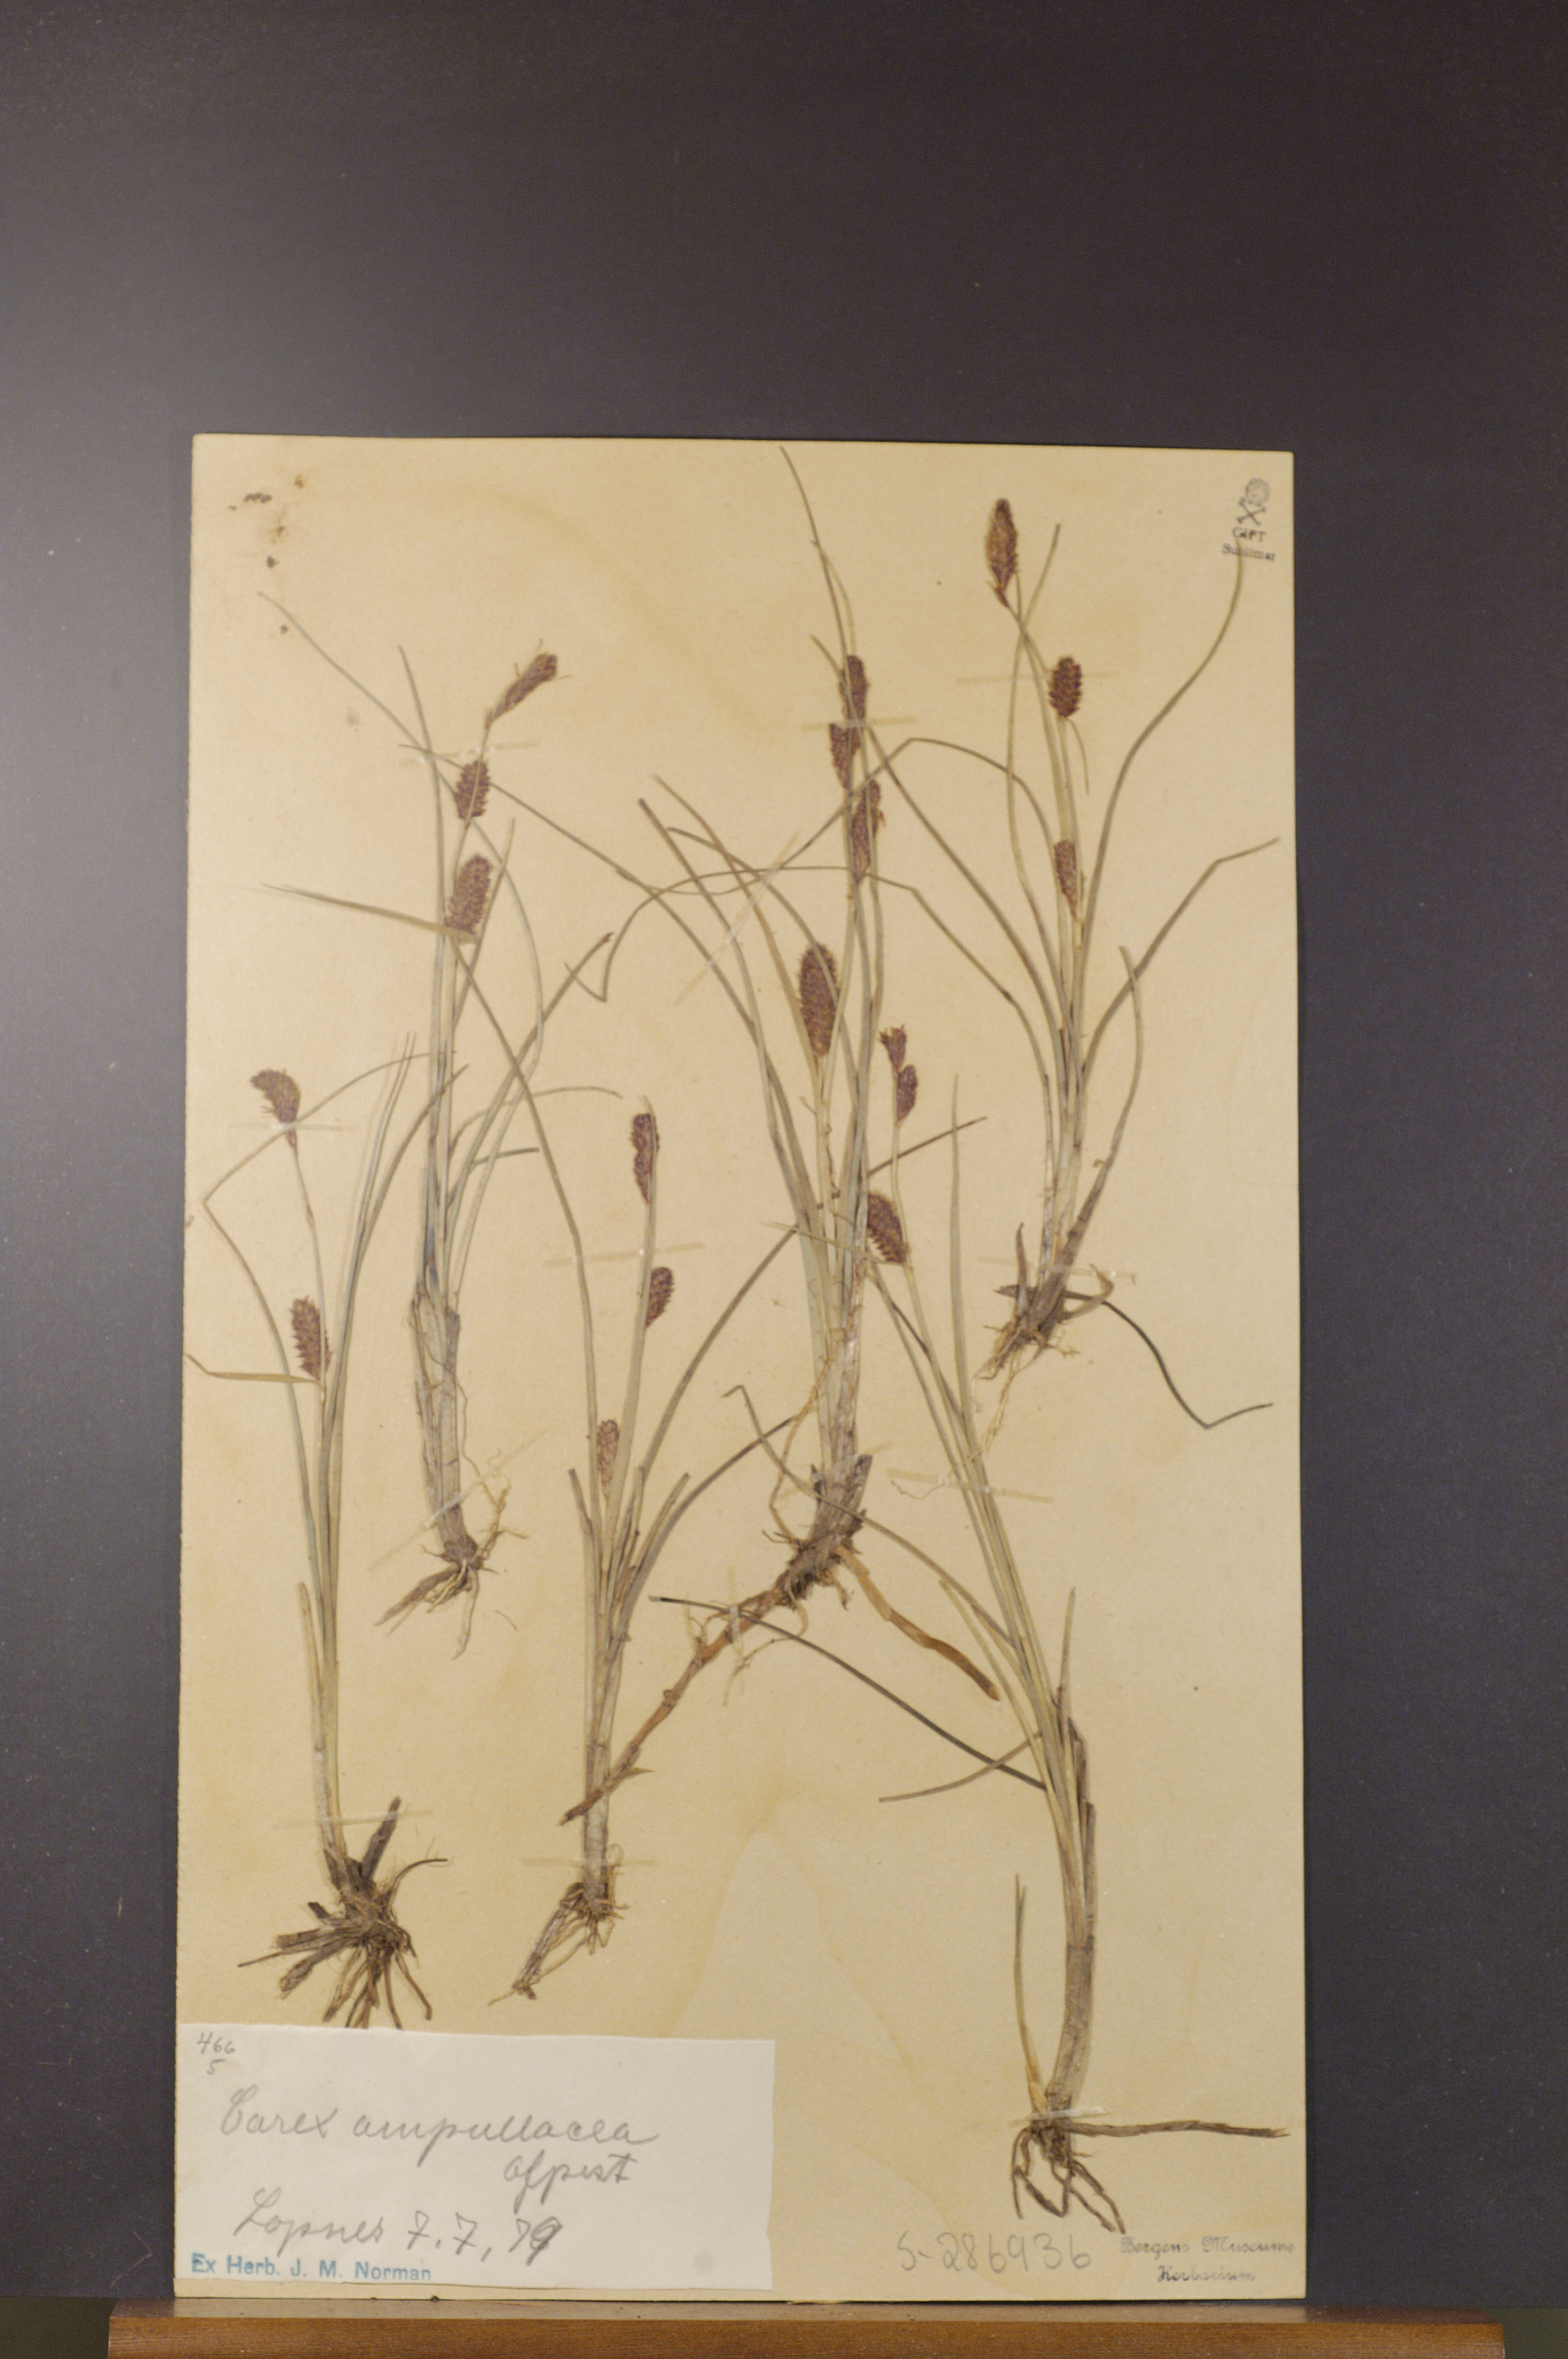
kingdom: Plantae
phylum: Tracheophyta
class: Liliopsida
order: Poales
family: Cyperaceae
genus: Carex
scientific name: Carex saamica
